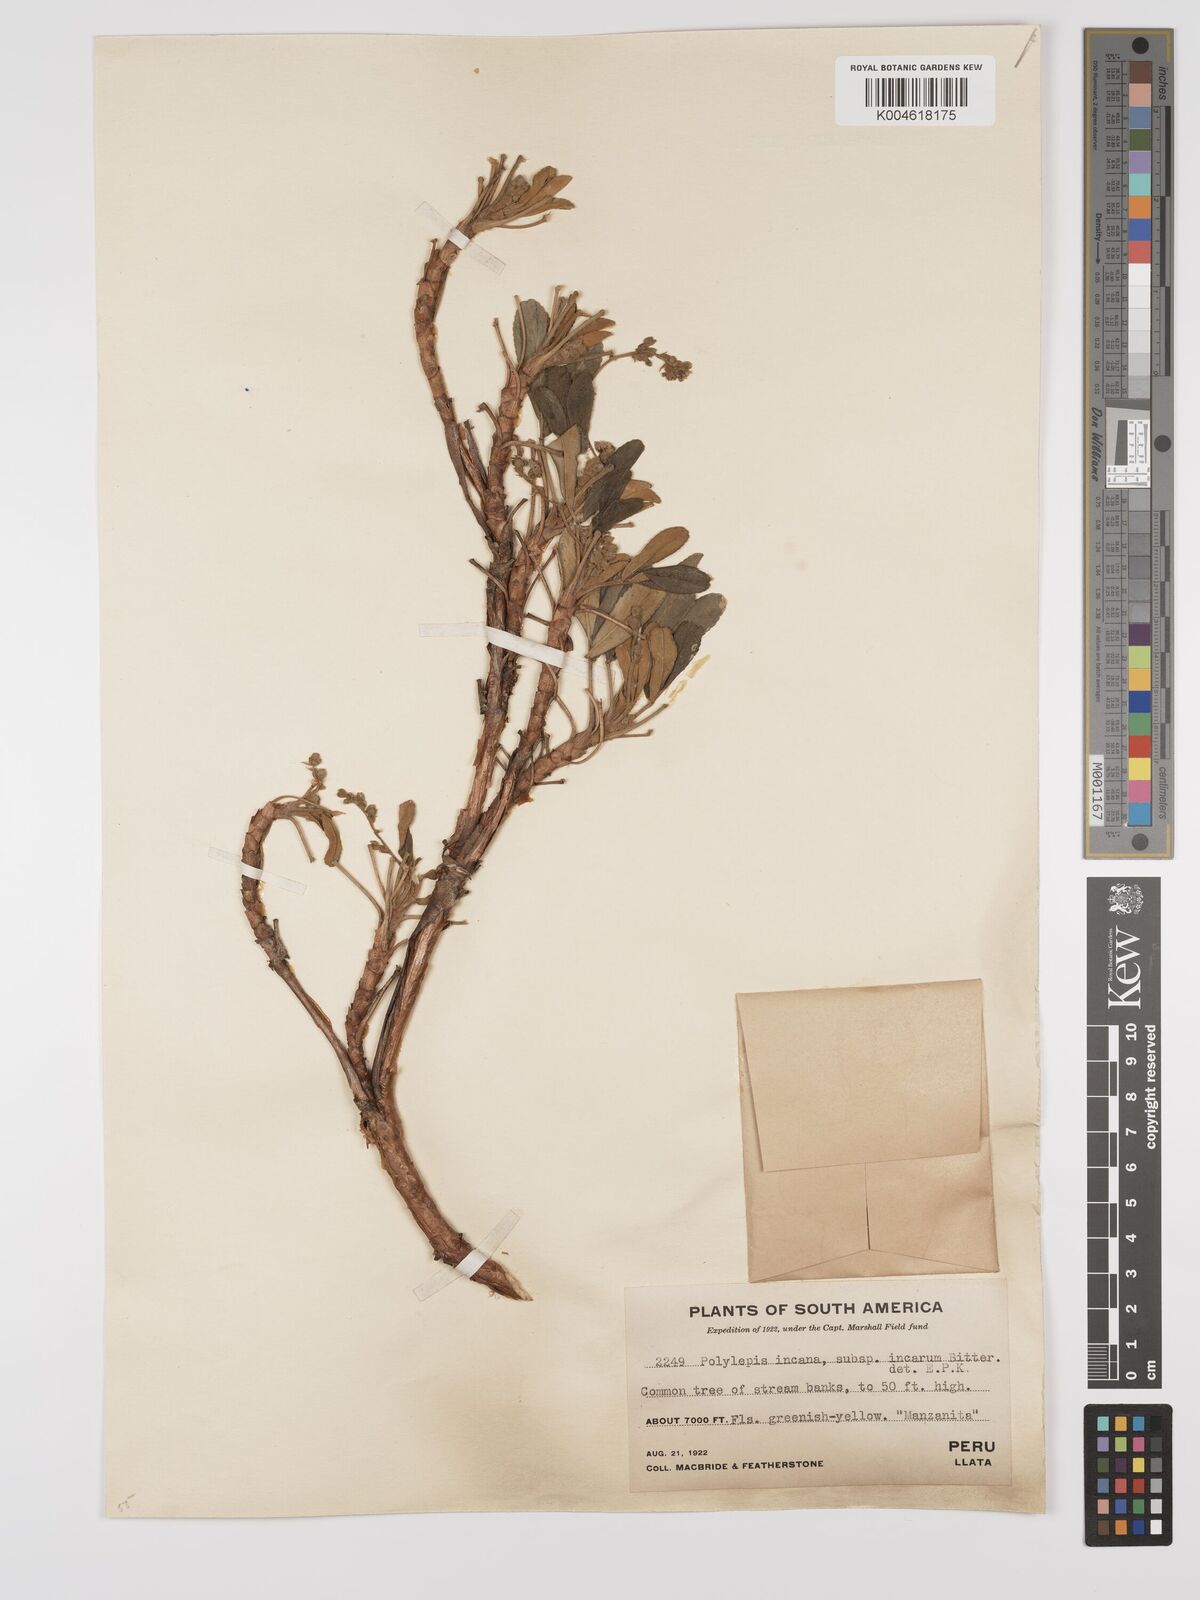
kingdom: Plantae
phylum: Tracheophyta
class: Magnoliopsida
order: Rosales
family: Rosaceae
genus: Polylepis
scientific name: Polylepis incana
